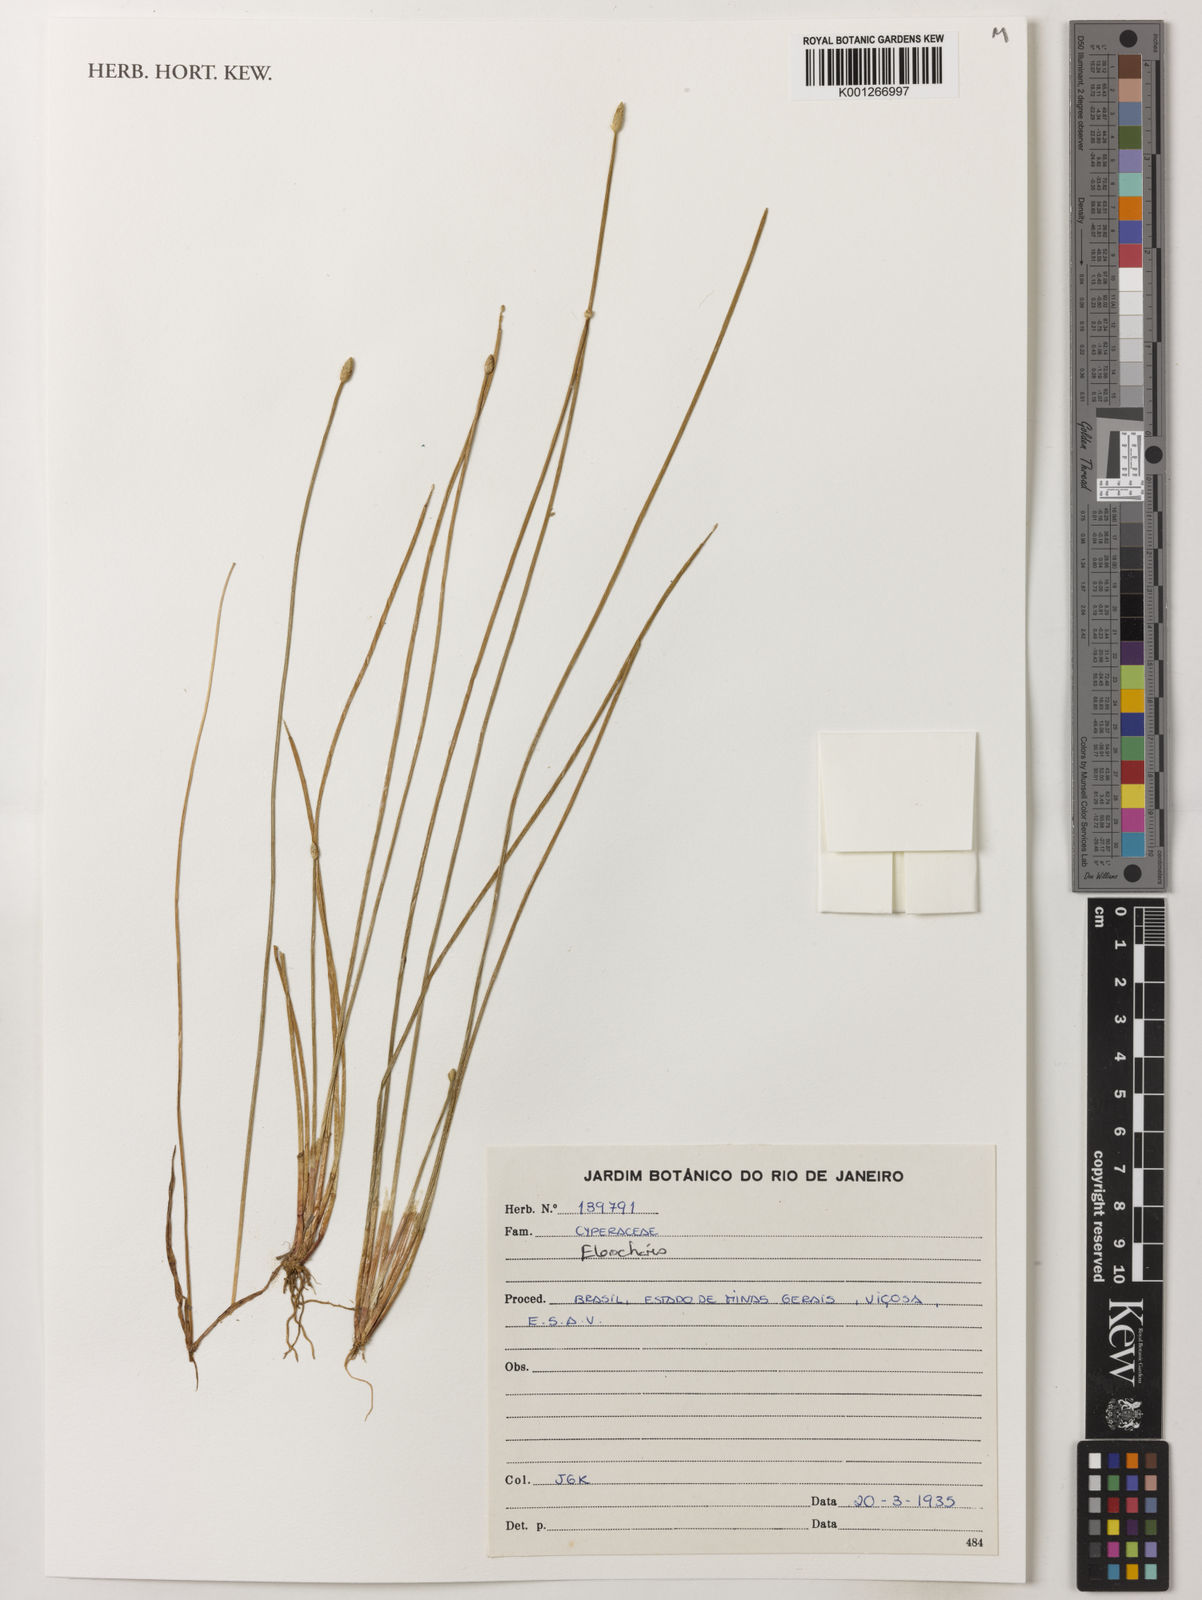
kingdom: Plantae
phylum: Tracheophyta
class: Liliopsida
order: Poales
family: Cyperaceae
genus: Eleocharis
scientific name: Eleocharis
